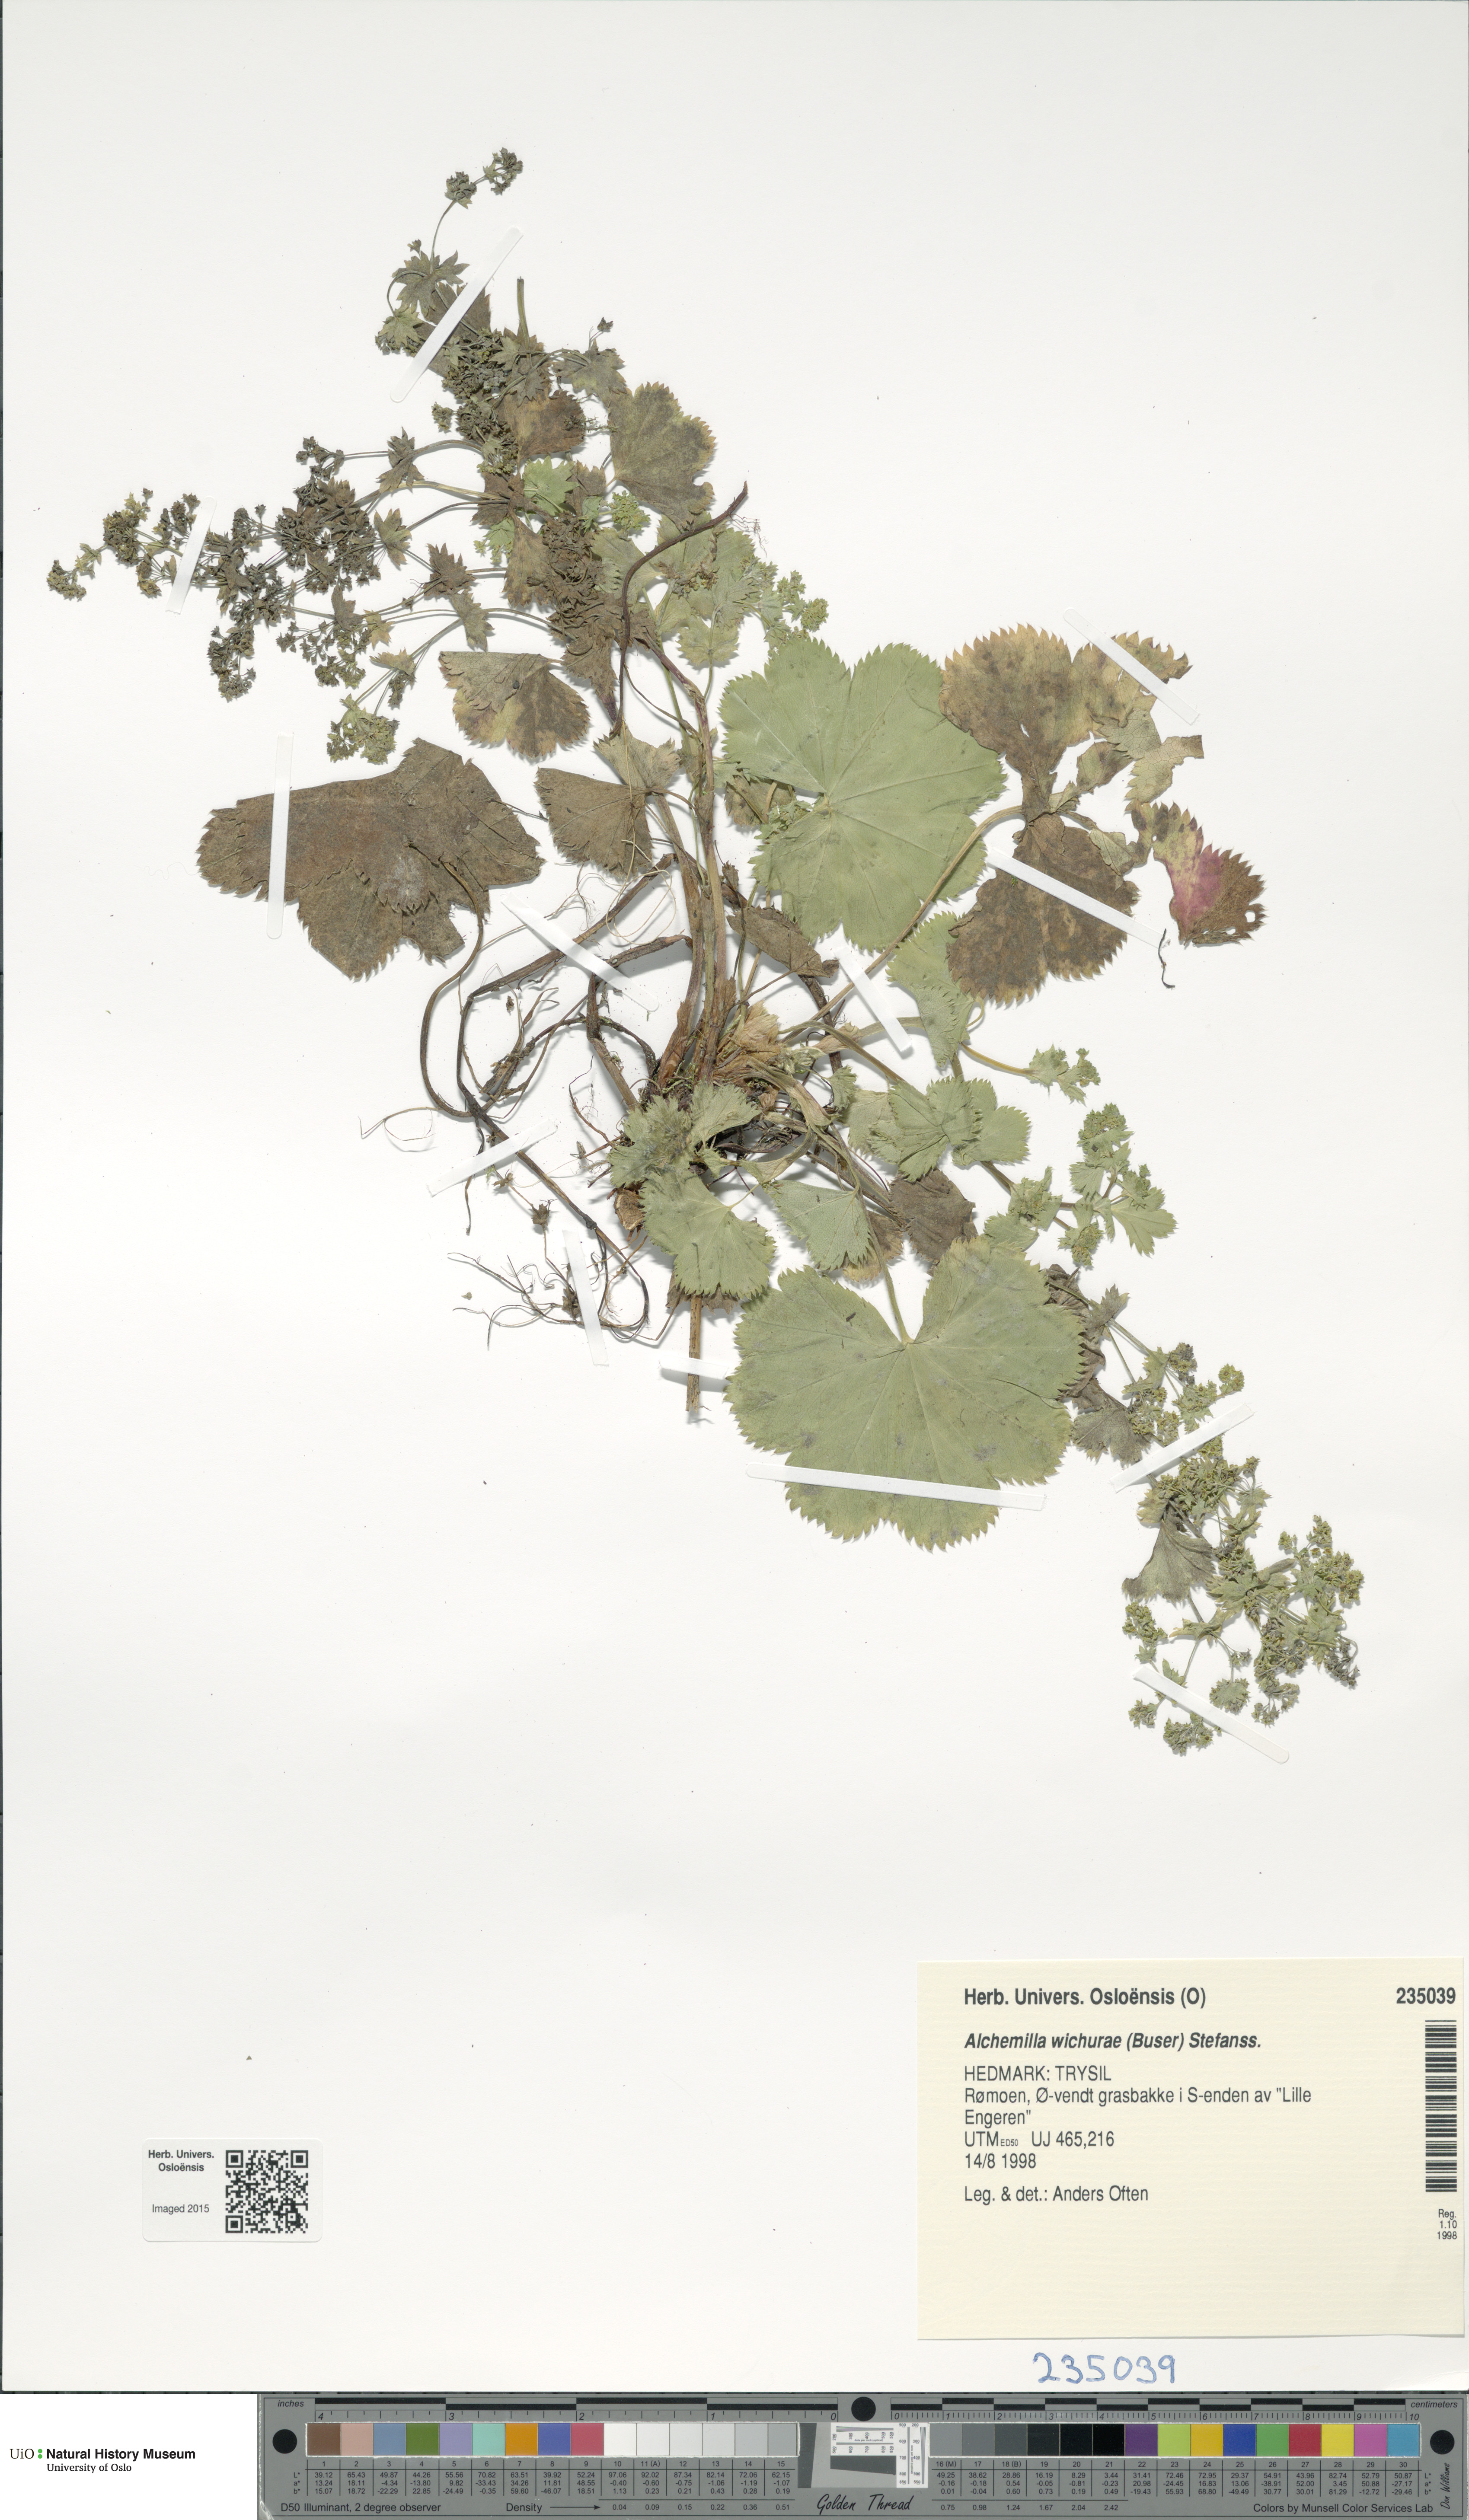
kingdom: Plantae
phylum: Tracheophyta
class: Magnoliopsida
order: Rosales
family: Rosaceae
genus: Alchemilla
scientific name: Alchemilla wichurae
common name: Rock lady's mantle
